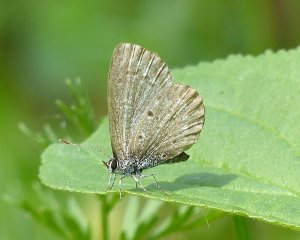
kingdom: Animalia
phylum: Arthropoda
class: Insecta
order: Lepidoptera
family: Lycaenidae
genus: Celastrina
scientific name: Celastrina lucia
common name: Northern Spring Azure
